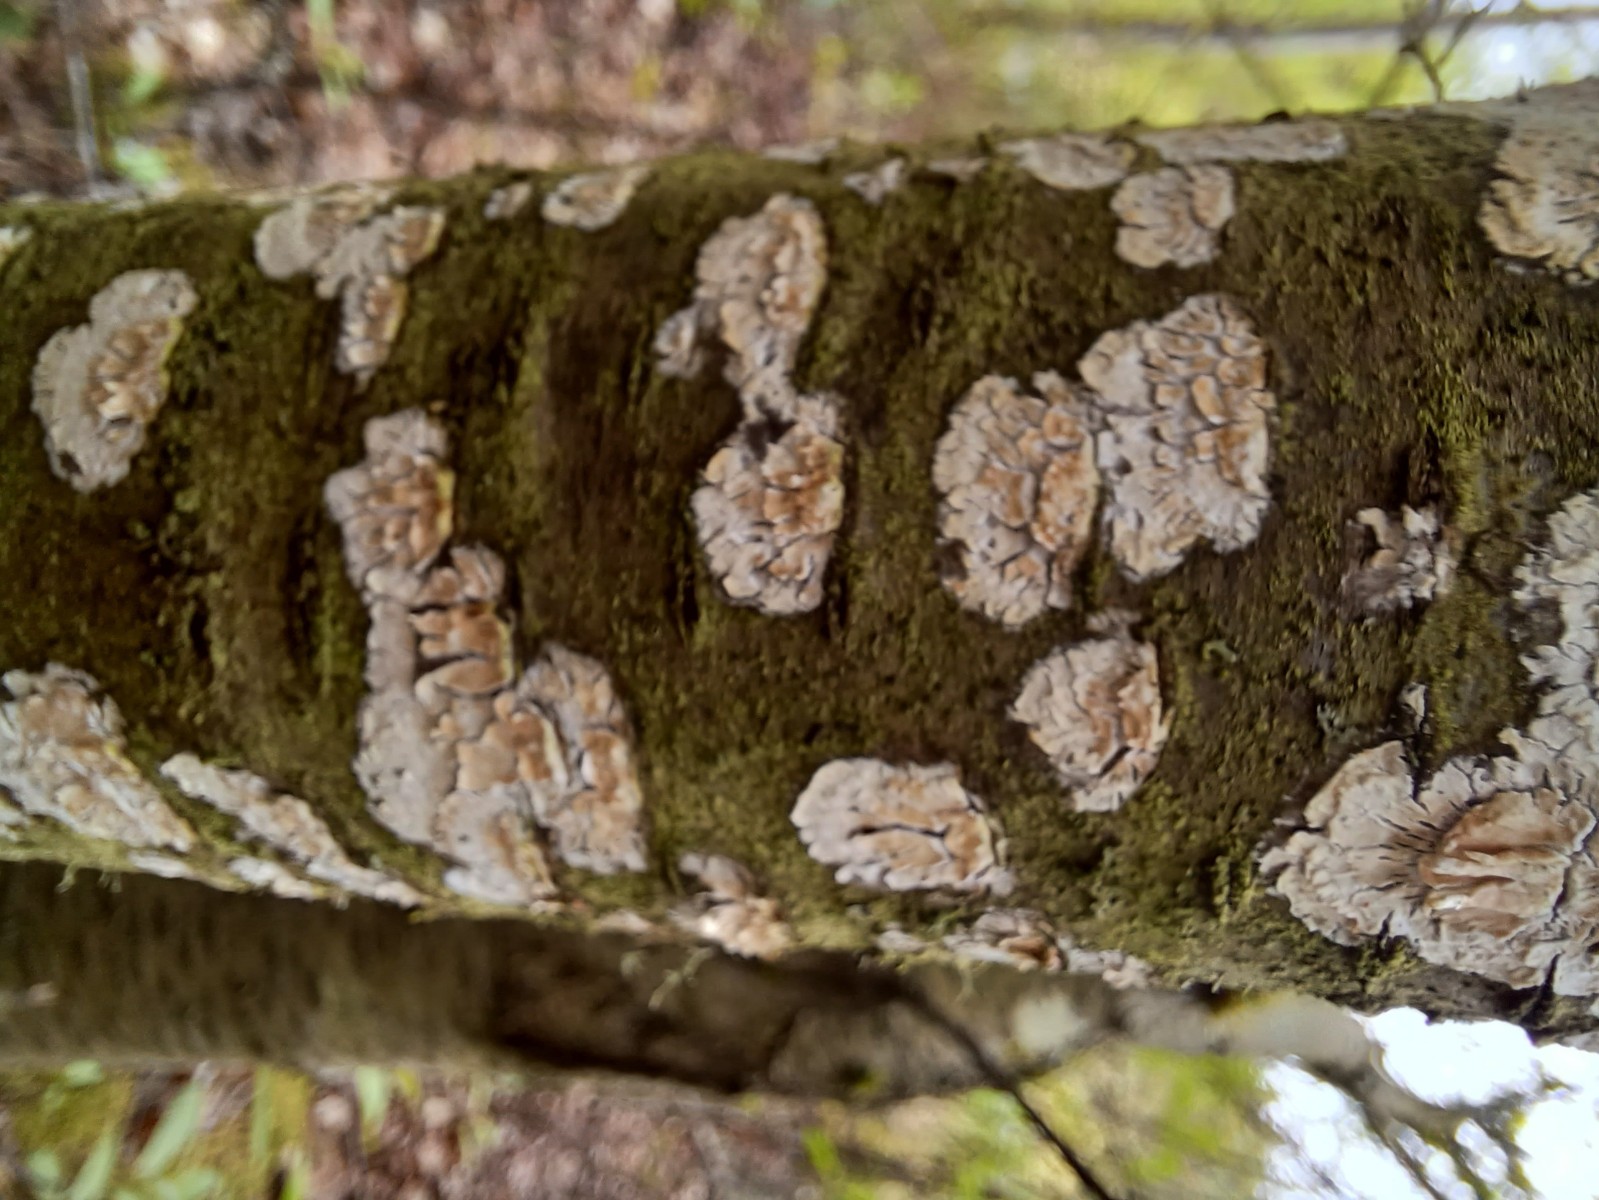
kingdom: Fungi
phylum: Basidiomycota
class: Agaricomycetes
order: Hymenochaetales
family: Schizoporaceae
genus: Xylodon
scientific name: Xylodon radula
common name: grovtandet kalkskind
